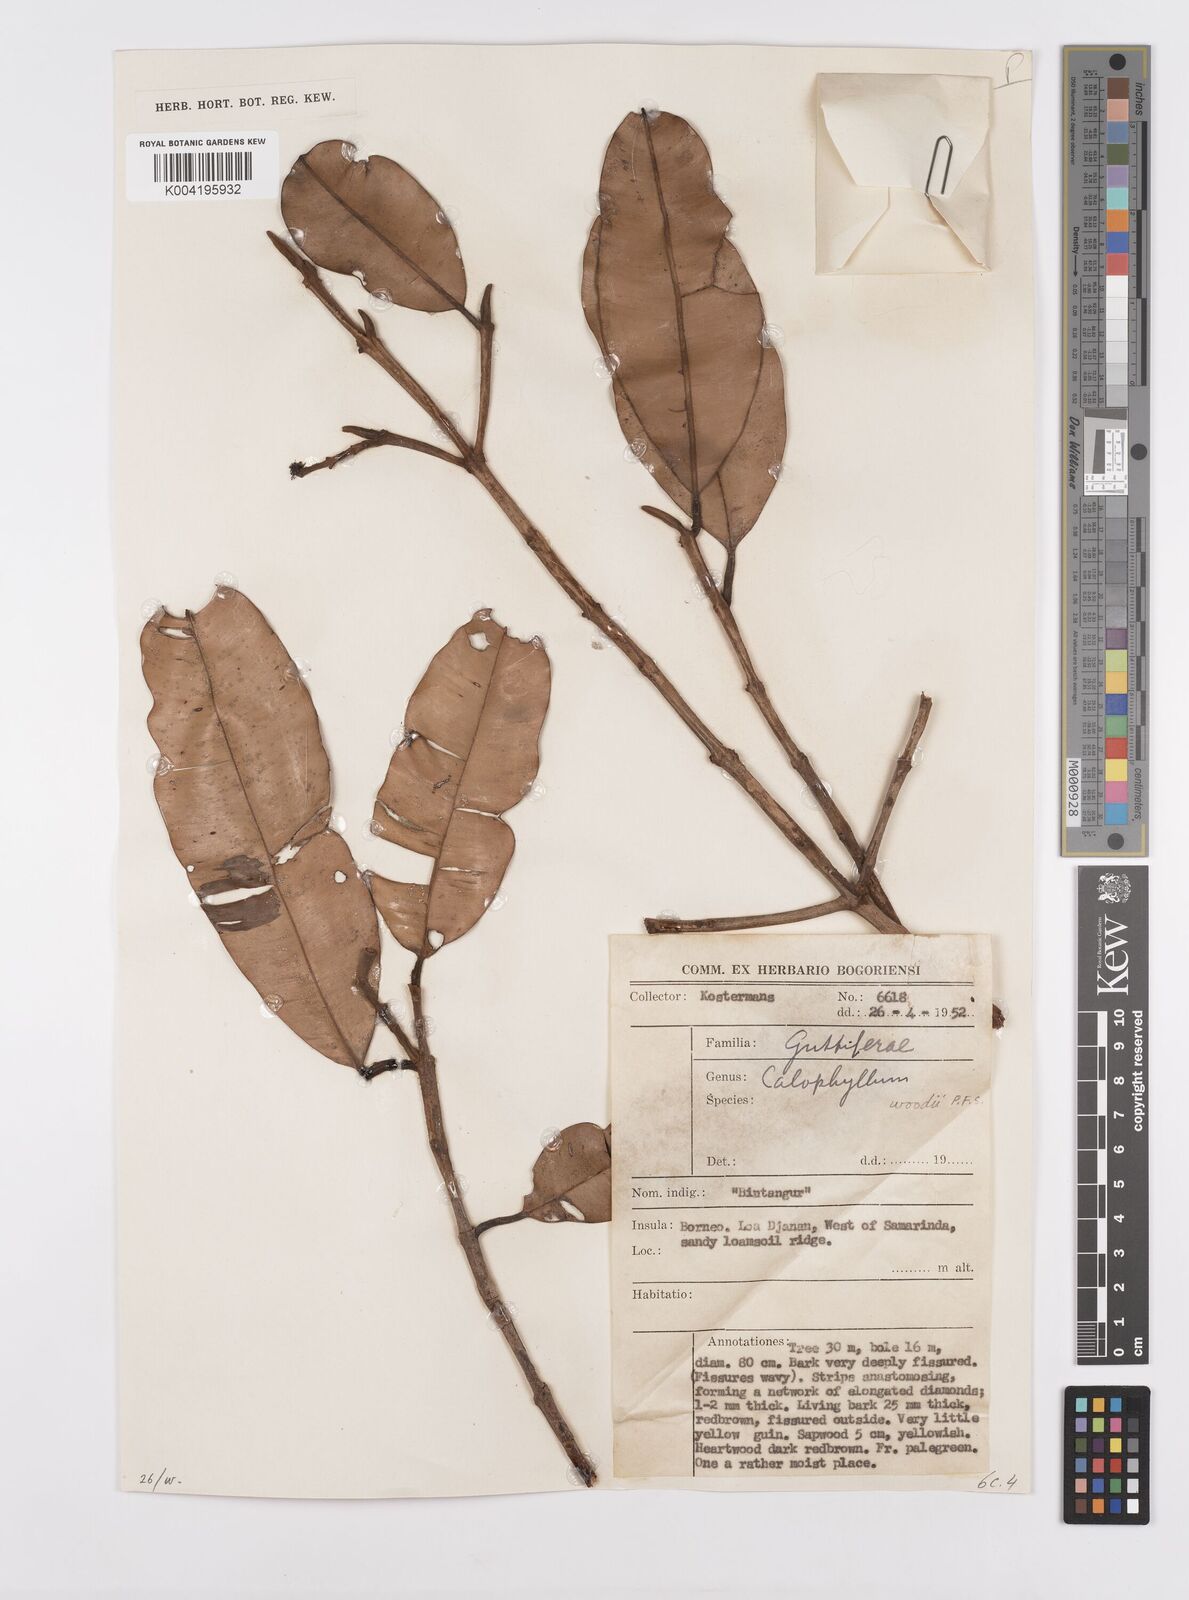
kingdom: Plantae
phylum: Tracheophyta
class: Magnoliopsida
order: Malpighiales
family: Calophyllaceae
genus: Calophyllum
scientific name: Calophyllum woodii
